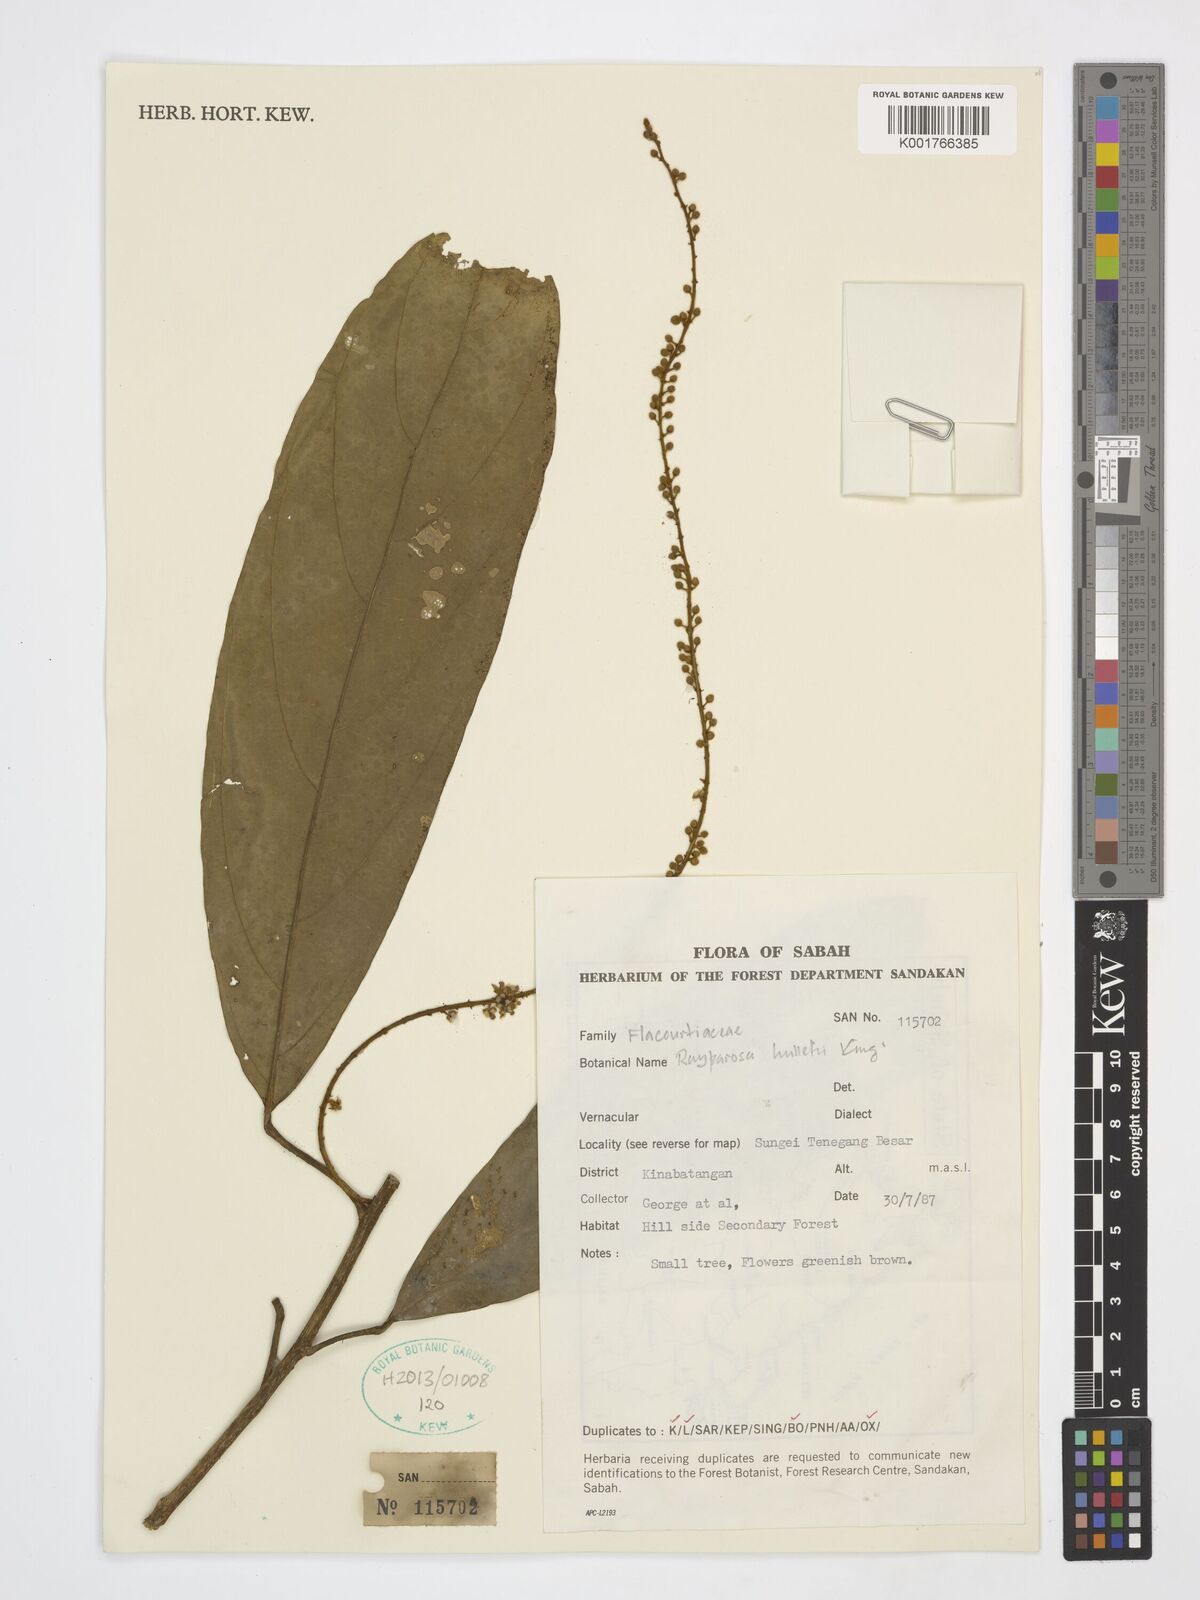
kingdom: Plantae
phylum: Tracheophyta
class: Magnoliopsida
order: Malpighiales
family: Achariaceae
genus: Ryparosa
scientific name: Ryparosa hullettii
